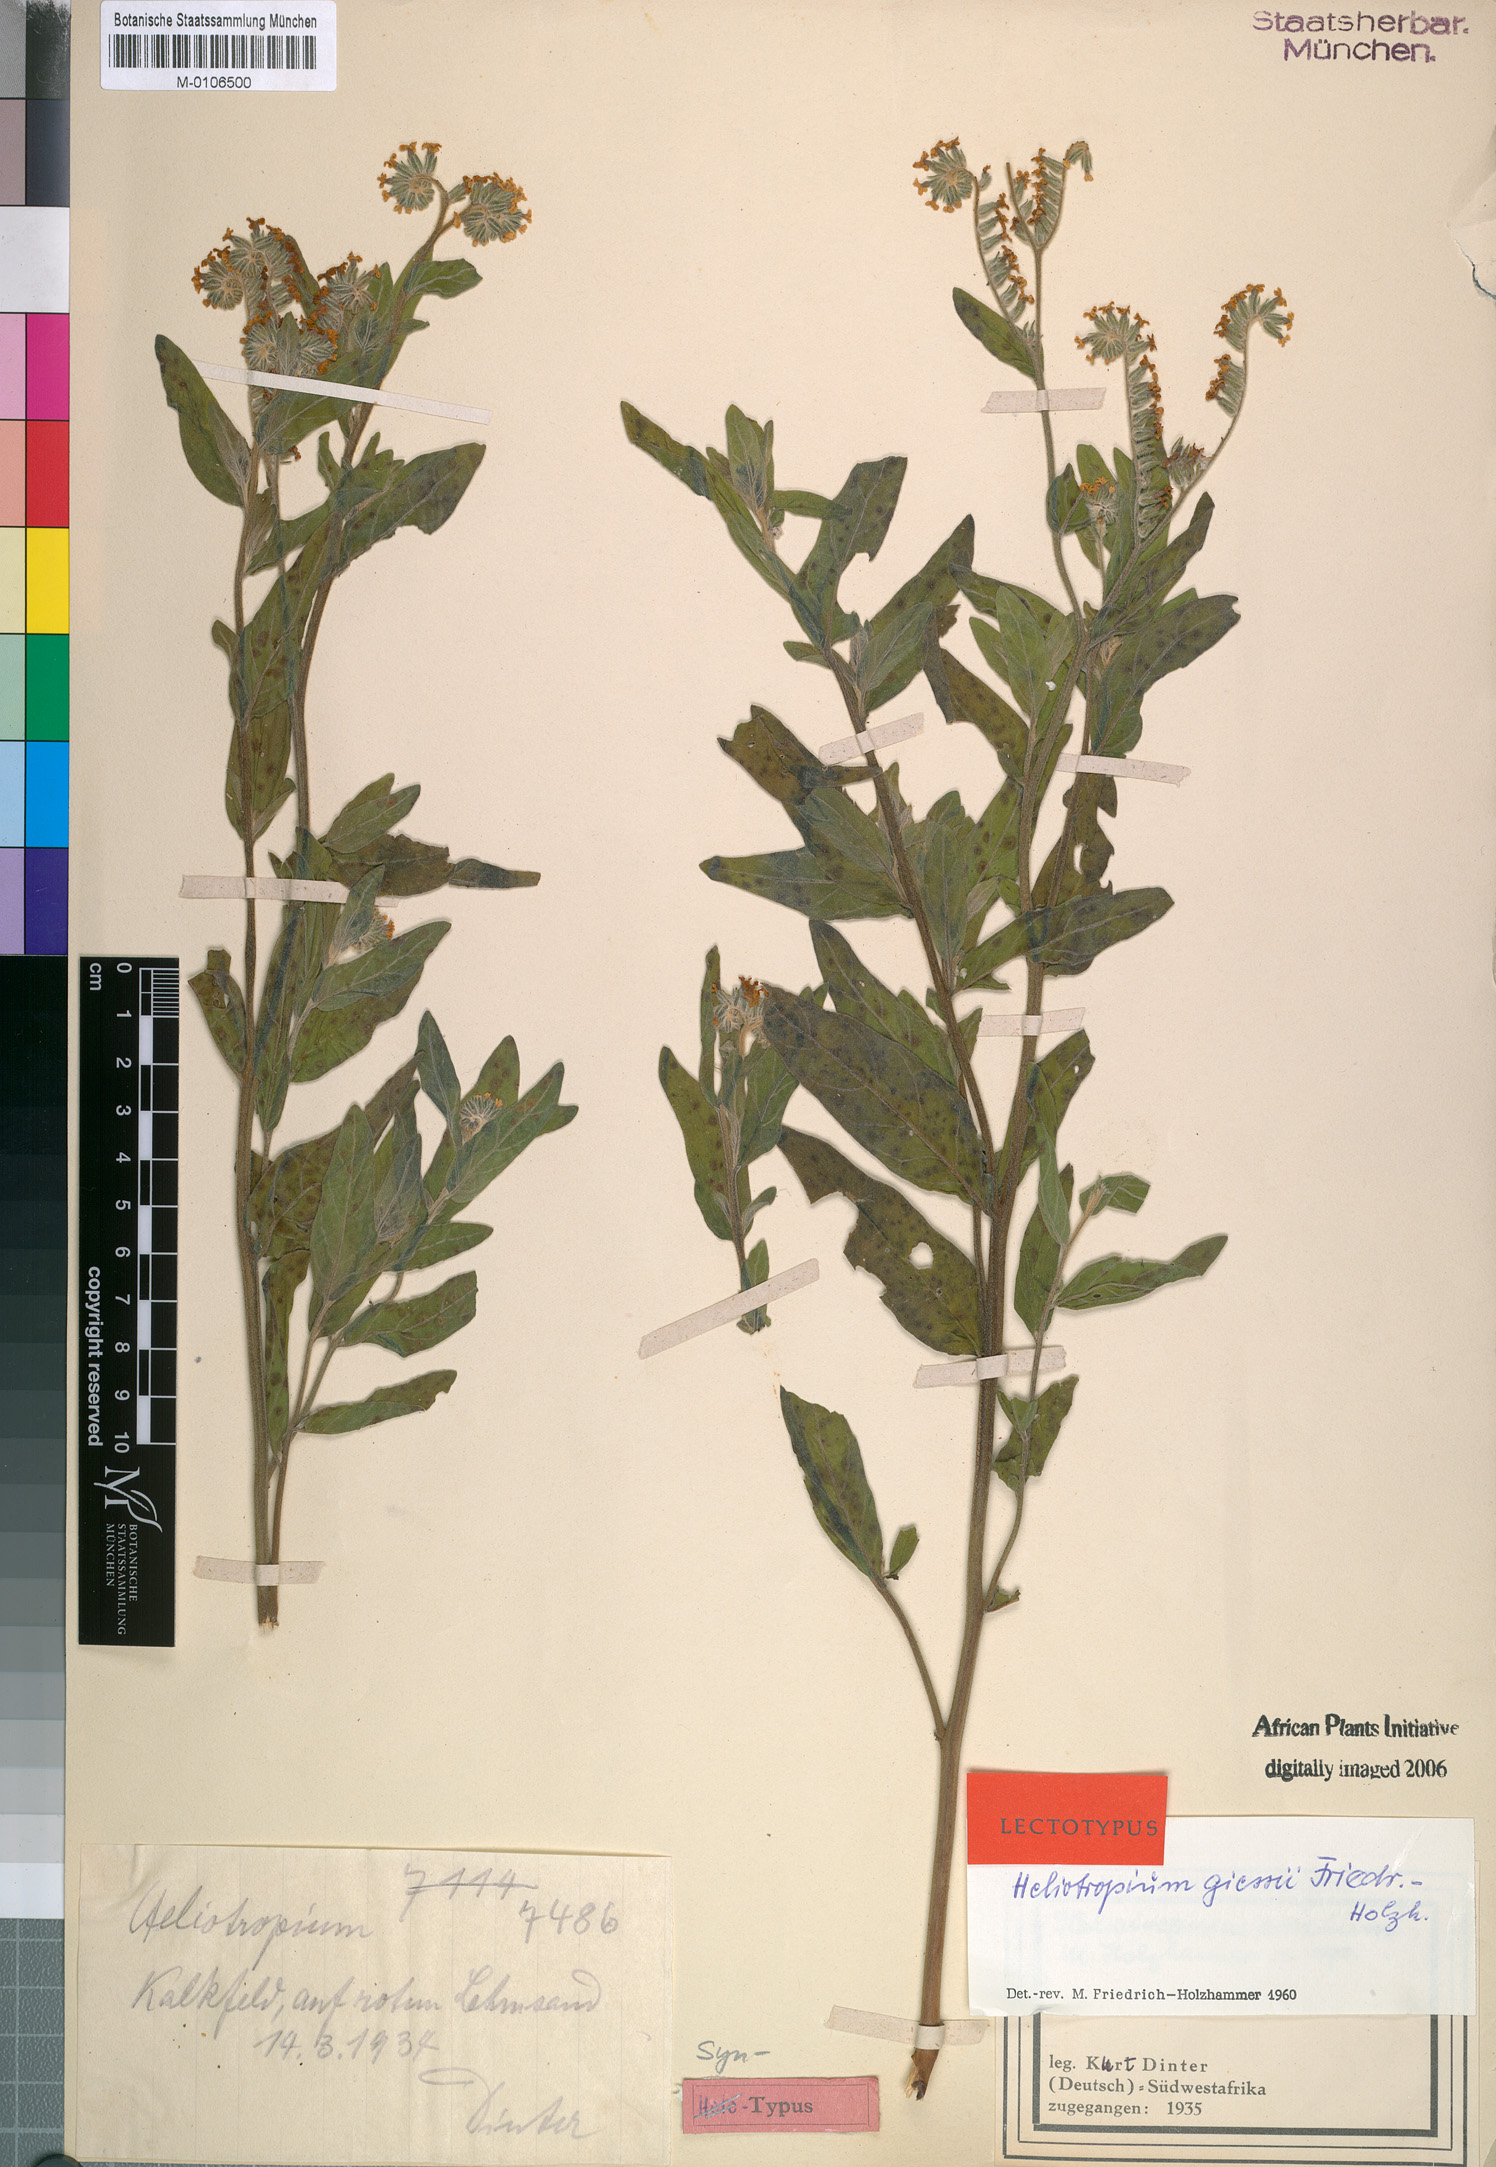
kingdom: Plantae
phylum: Tracheophyta
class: Magnoliopsida
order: Boraginales
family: Heliotropiaceae
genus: Heliotropium
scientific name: Heliotropium giessii
